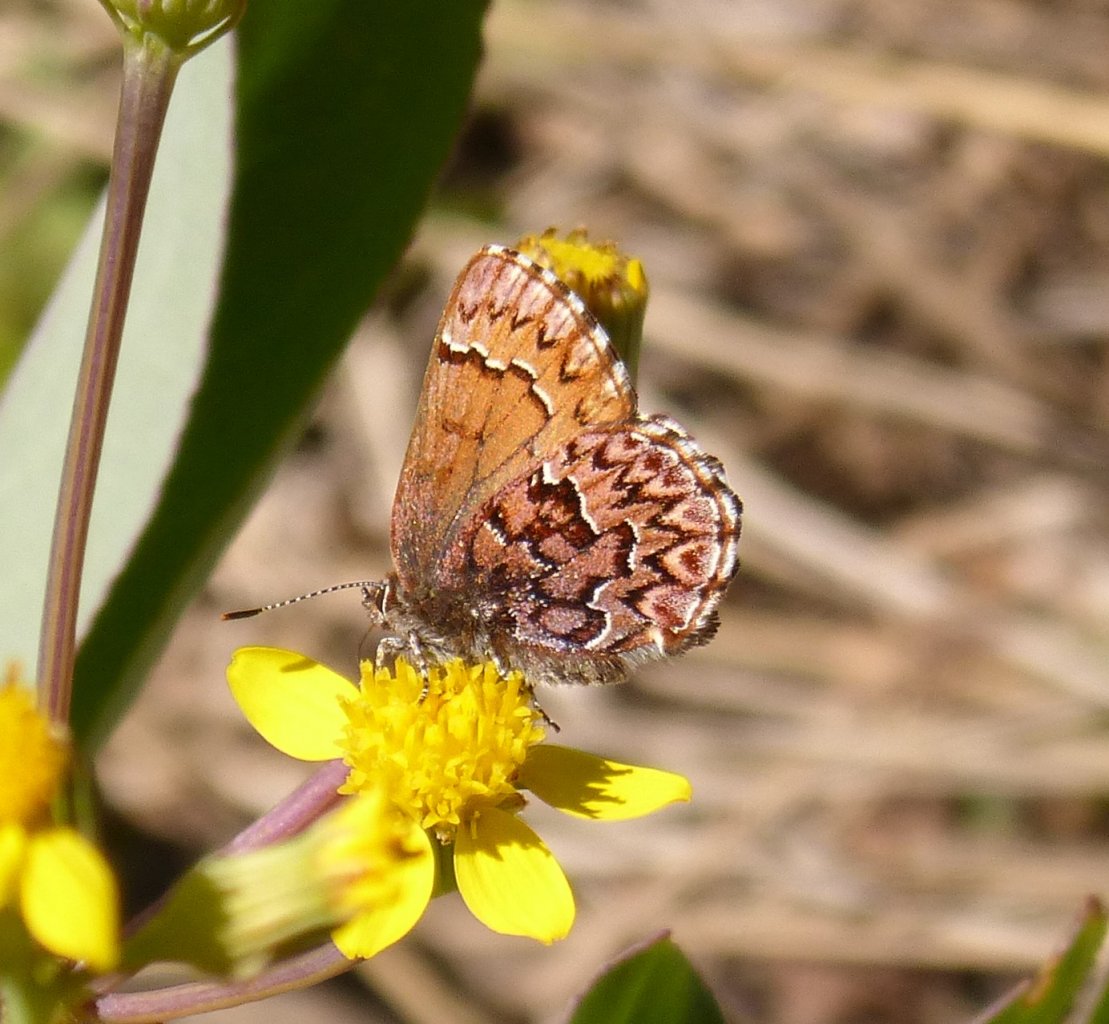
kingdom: Animalia
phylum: Arthropoda
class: Insecta
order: Lepidoptera
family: Lycaenidae
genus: Incisalia
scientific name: Incisalia eryphon
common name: Western Pine Elfin
